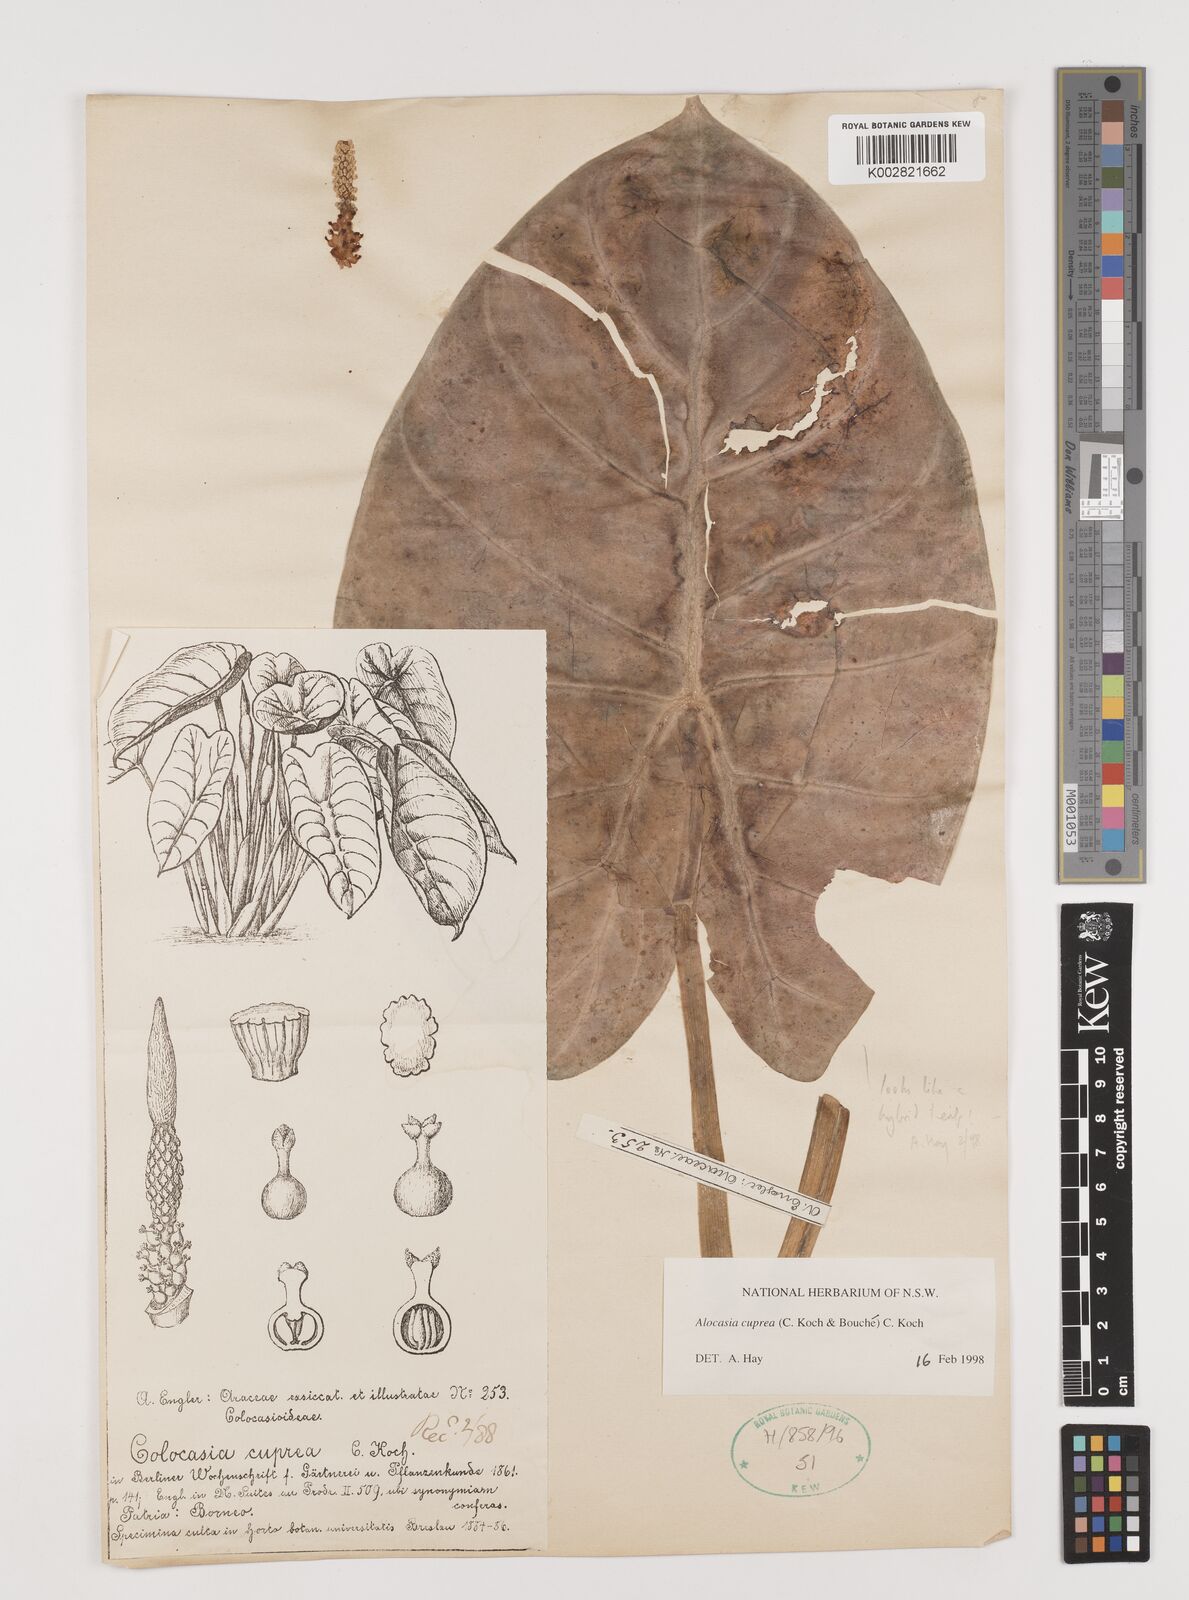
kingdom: Plantae
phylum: Tracheophyta
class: Liliopsida
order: Alismatales
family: Araceae
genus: Alocasia
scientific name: Alocasia cuprea
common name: Giant caladium
